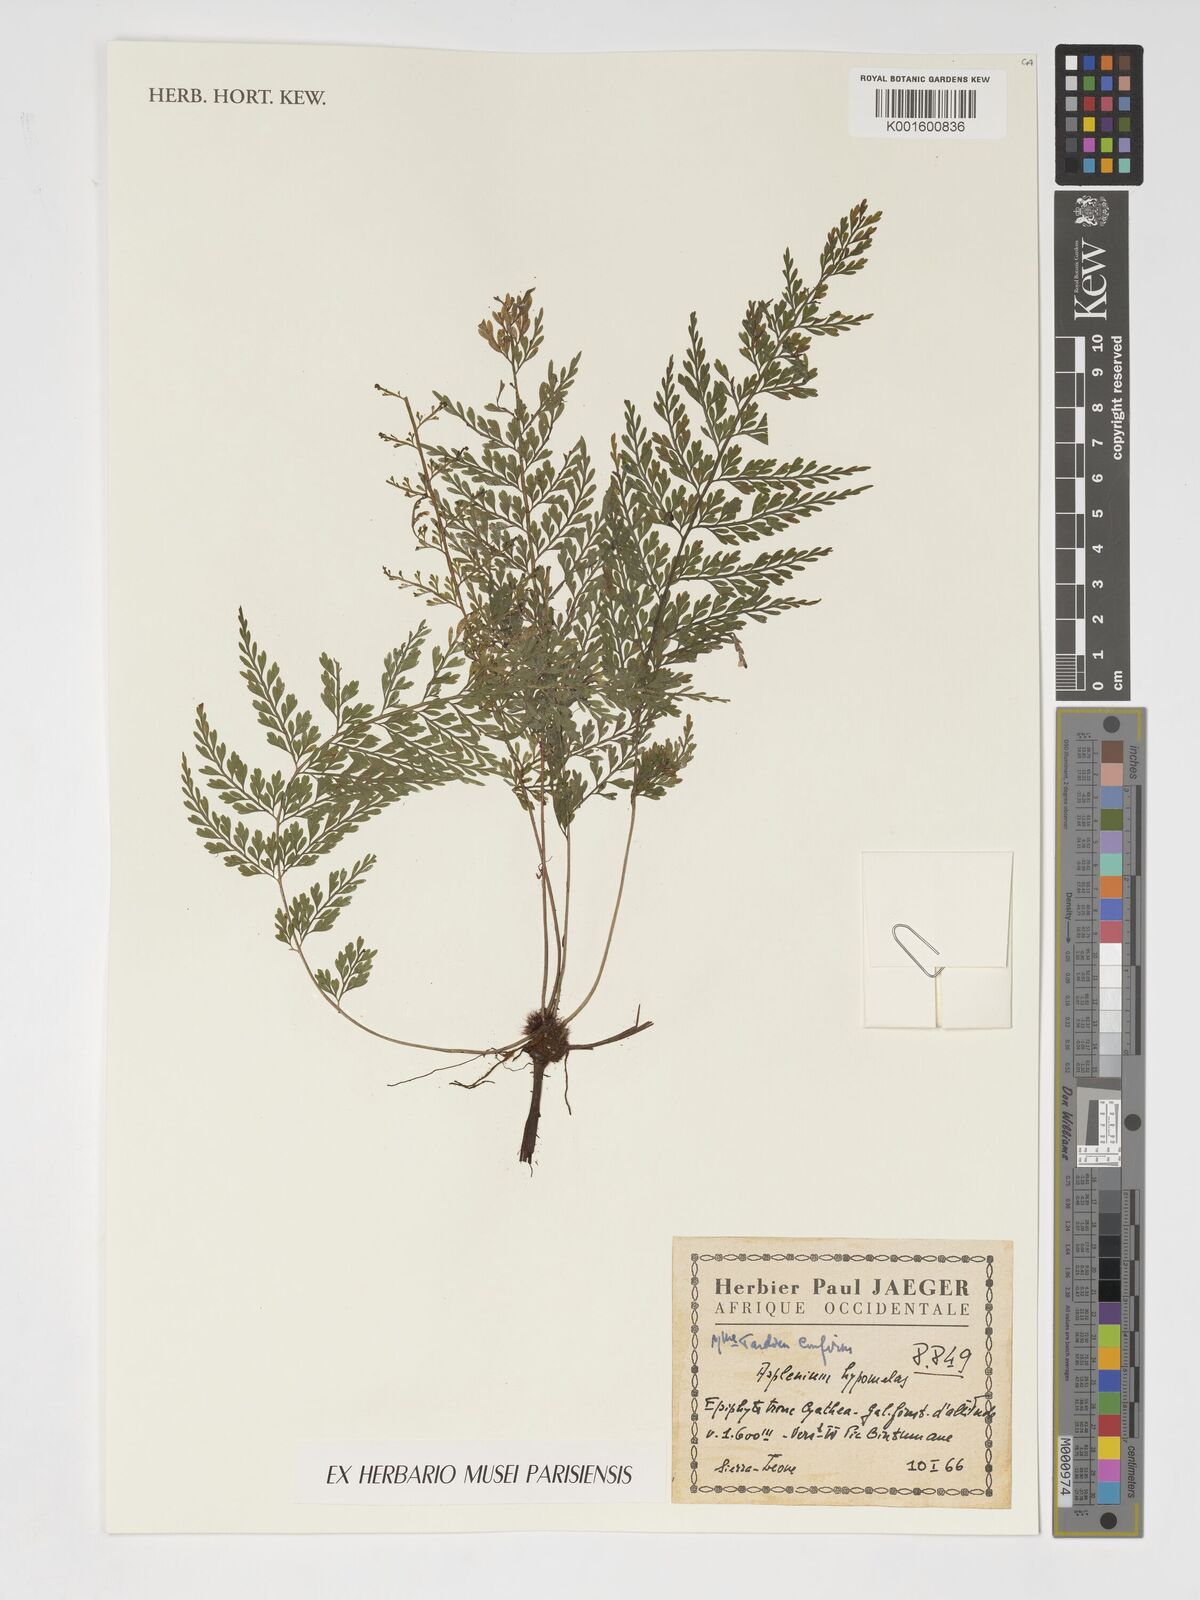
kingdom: Plantae
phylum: Tracheophyta
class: Polypodiopsida
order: Polypodiales
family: Aspleniaceae
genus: Asplenium
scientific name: Asplenium hypomelas
